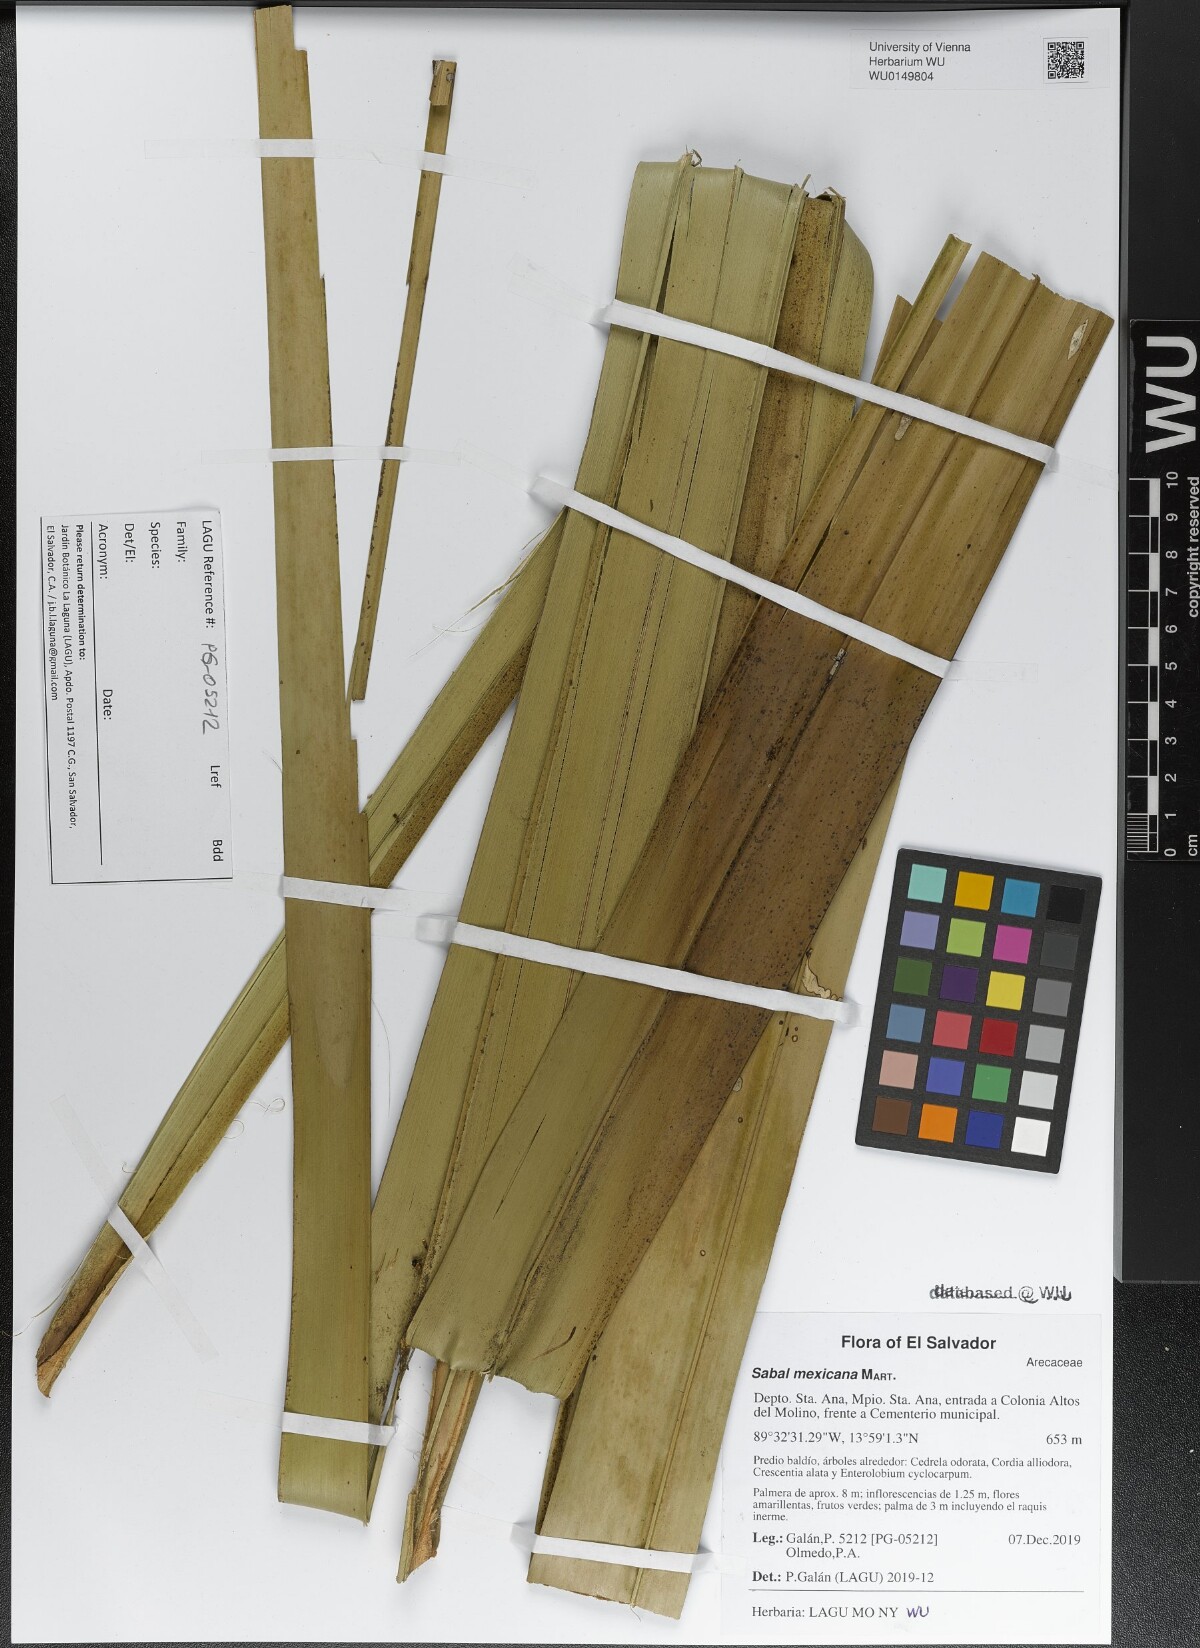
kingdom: Plantae
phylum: Tracheophyta
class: Liliopsida
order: Arecales
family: Arecaceae
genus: Sabal
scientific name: Sabal mexicana
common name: Texas palmetto
